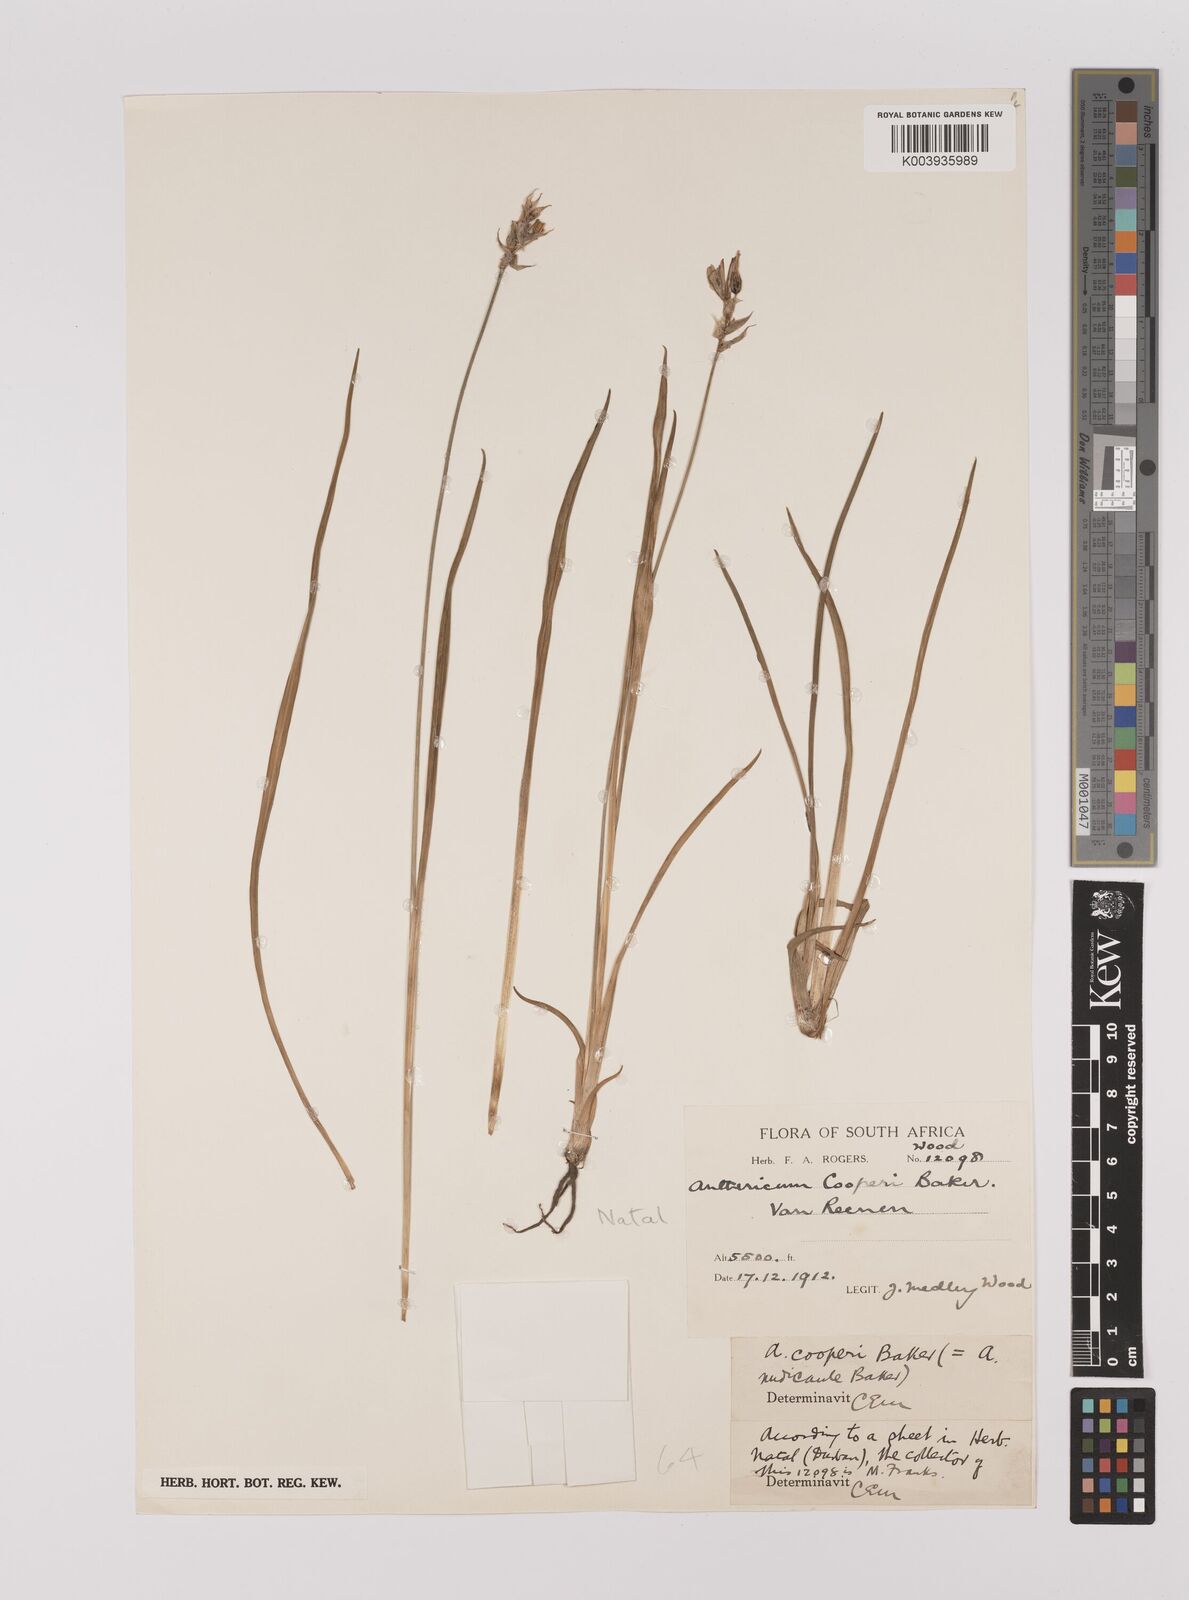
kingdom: Plantae
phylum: Tracheophyta
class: Liliopsida
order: Asparagales
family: Asparagaceae
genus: Chlorophytum
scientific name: Chlorophytum cooperi
